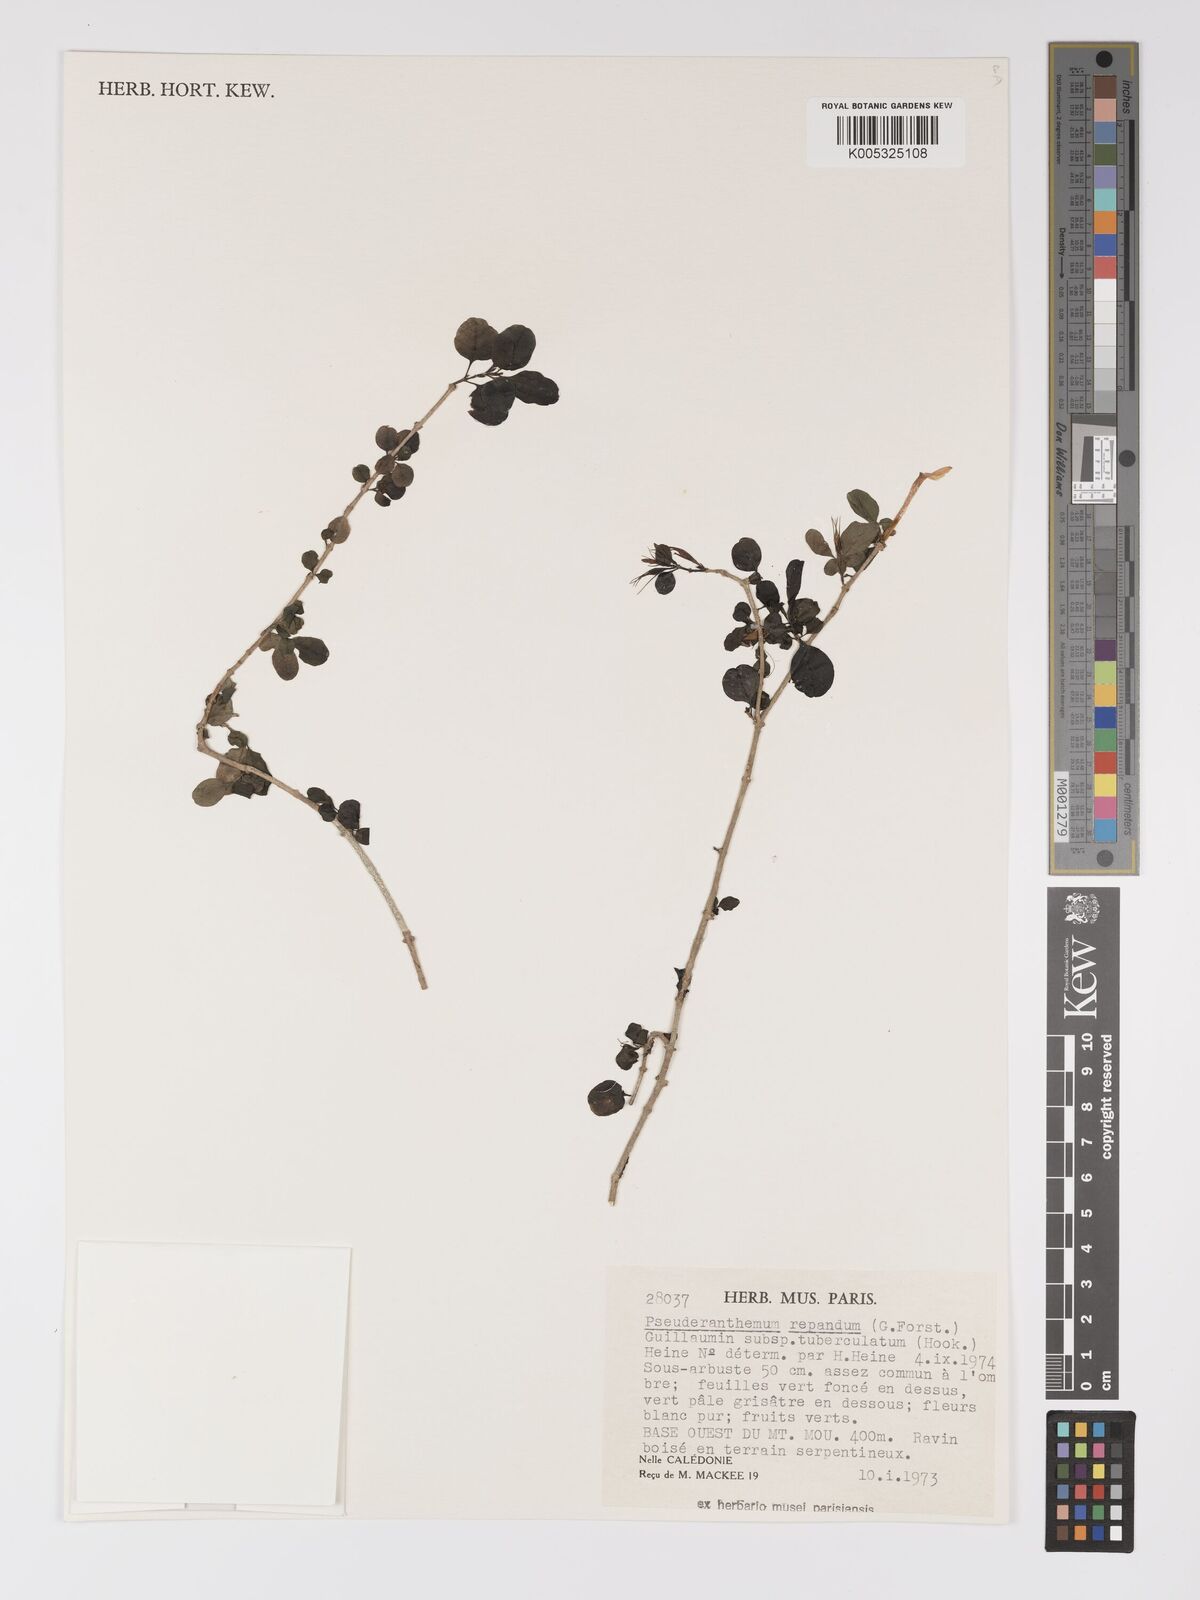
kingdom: Plantae
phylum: Tracheophyta
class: Magnoliopsida
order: Lamiales
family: Acanthaceae
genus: Pseuderanthemum
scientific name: Pseuderanthemum repandum
